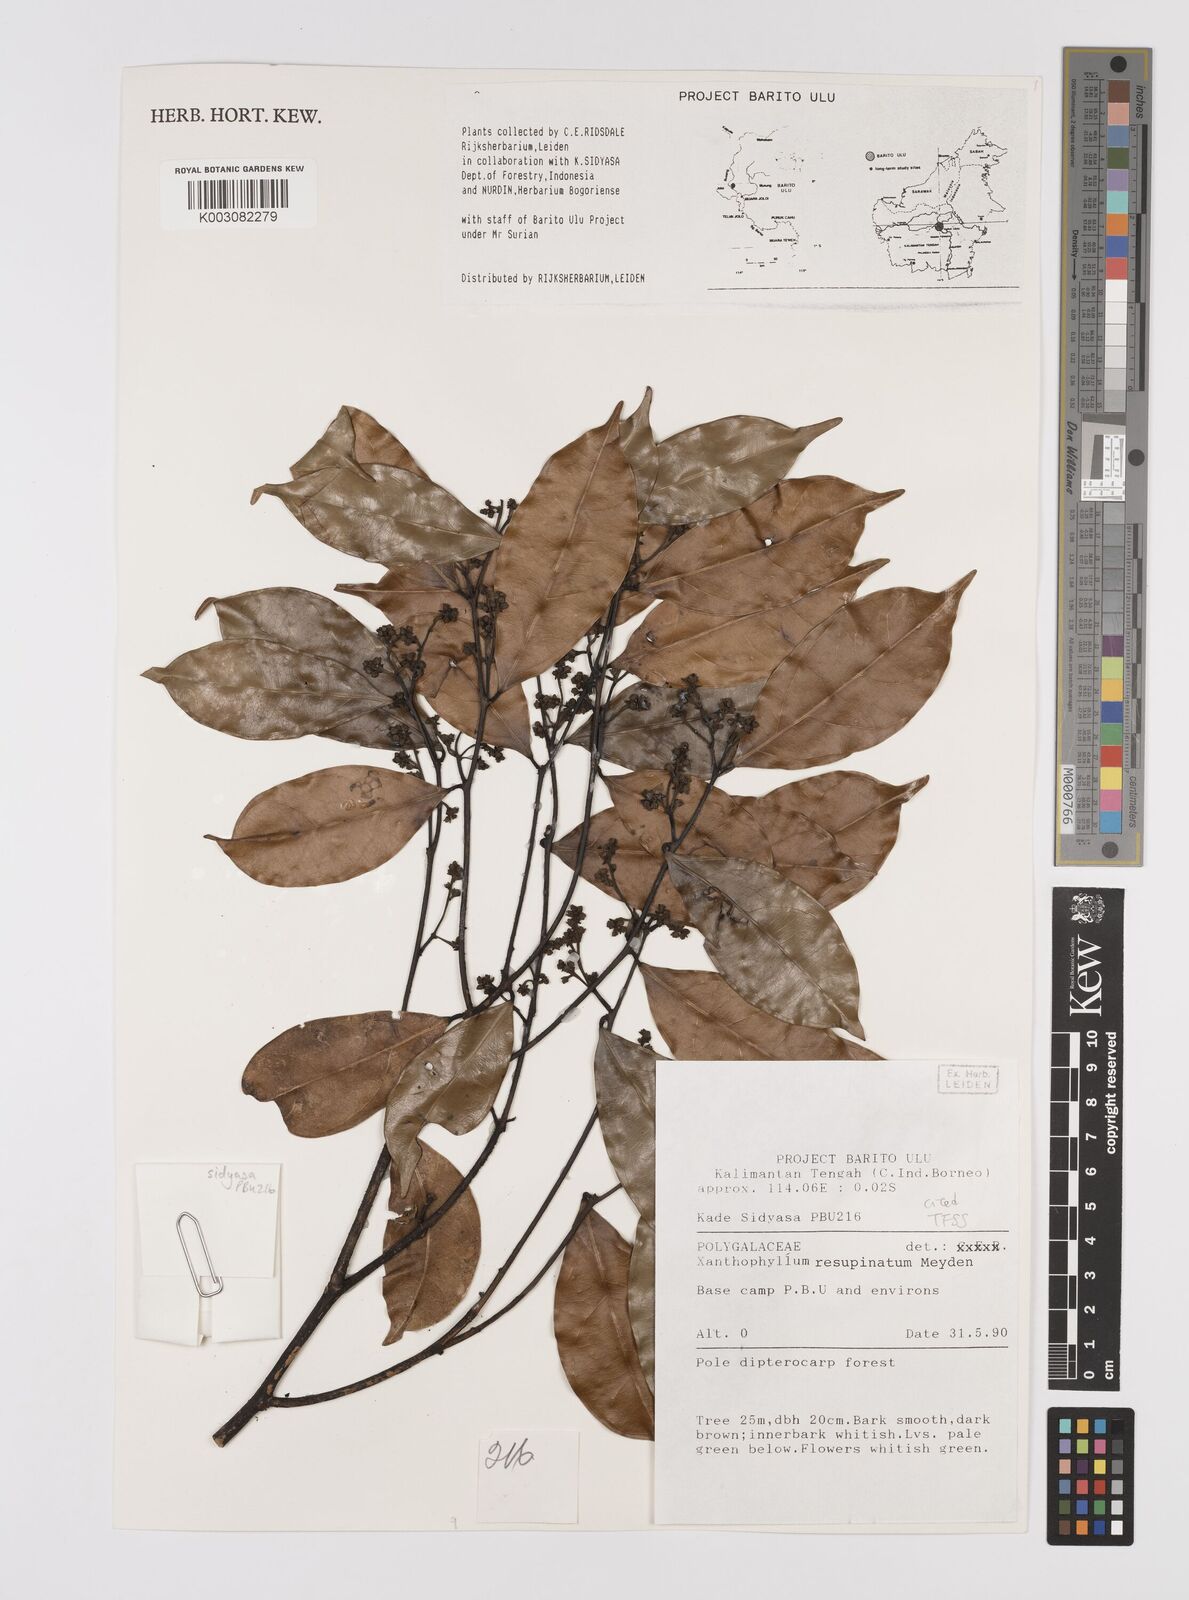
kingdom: Plantae
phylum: Tracheophyta
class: Magnoliopsida
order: Fabales
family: Polygalaceae
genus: Xanthophyllum
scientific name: Xanthophyllum resupinatum
